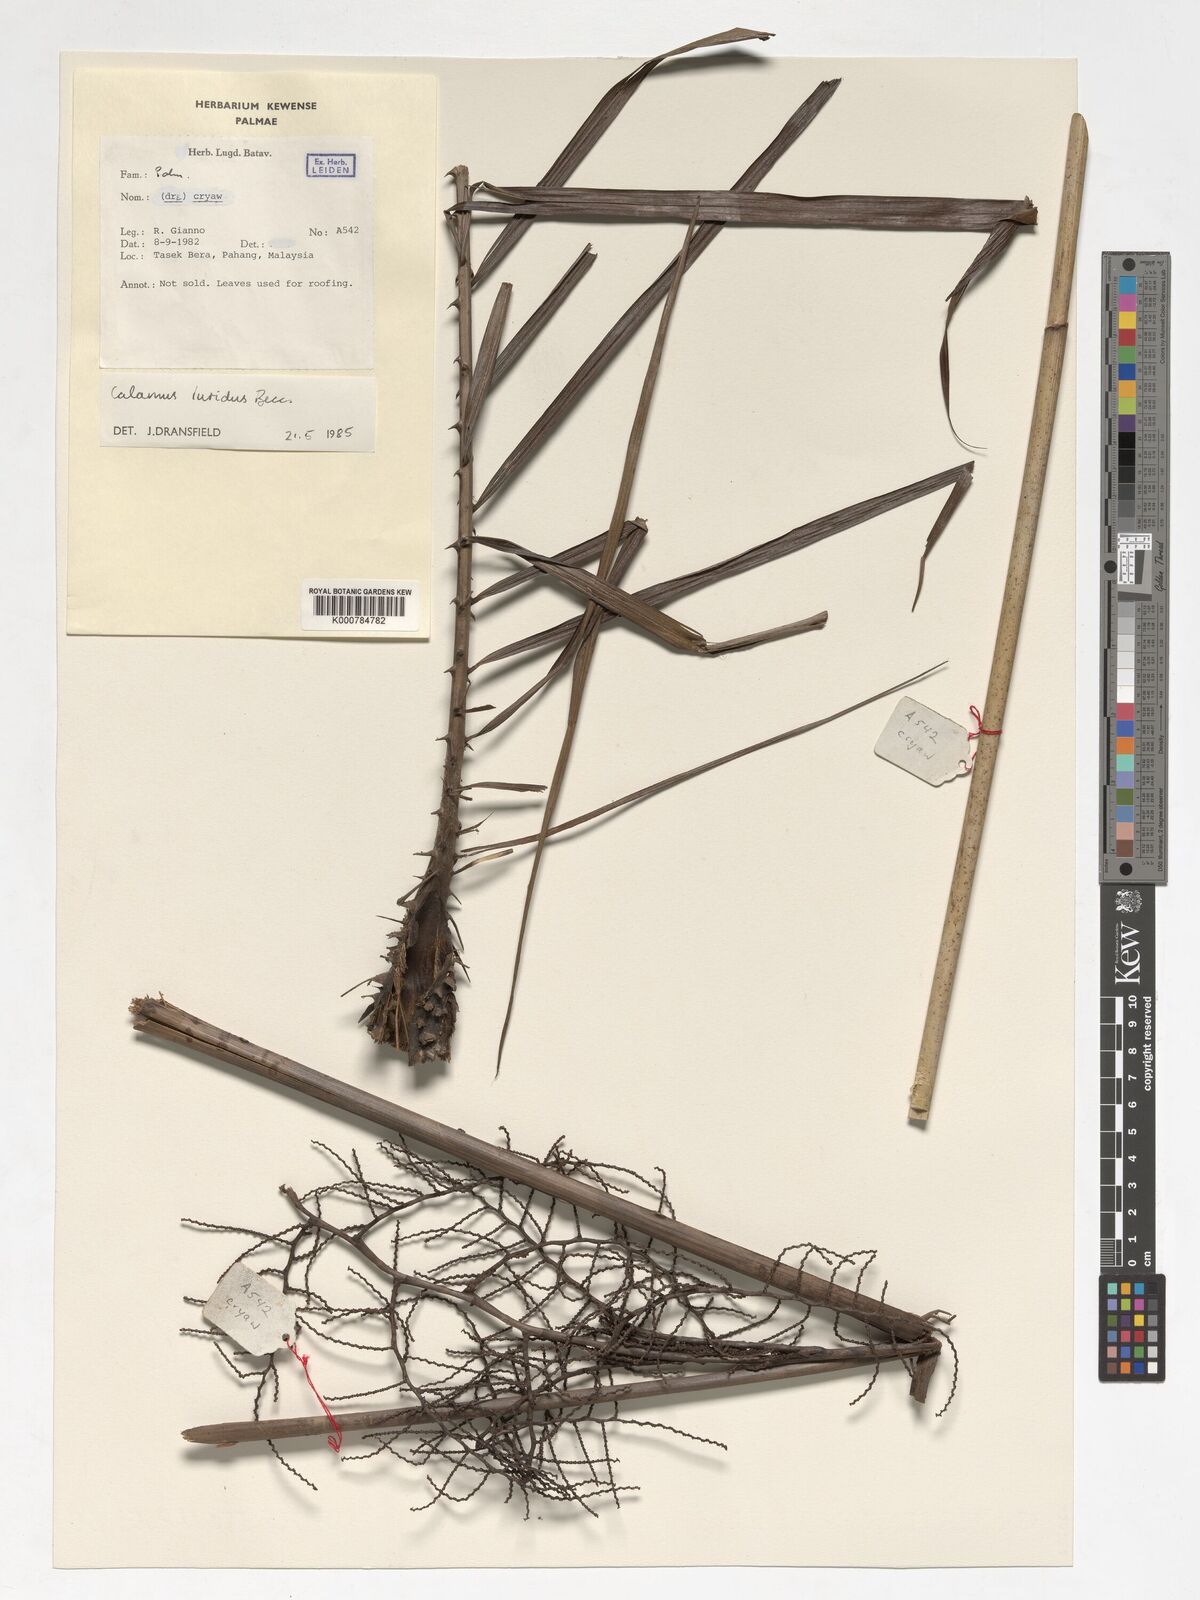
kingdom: Plantae
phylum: Tracheophyta
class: Liliopsida
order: Arecales
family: Arecaceae
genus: Calamus
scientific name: Calamus micranthus
